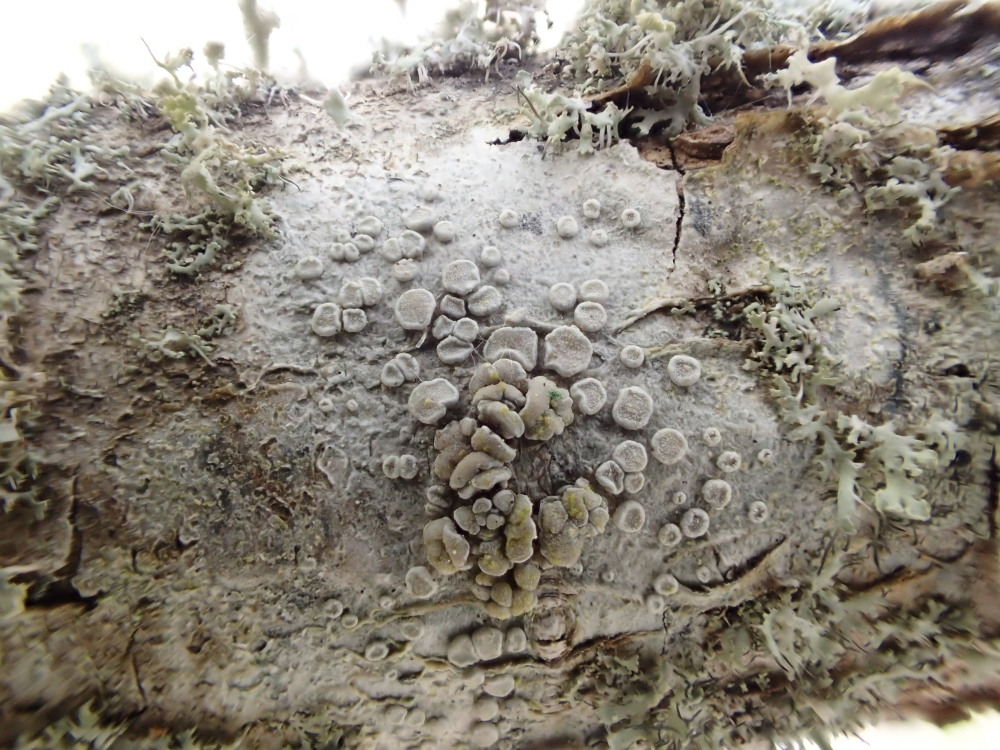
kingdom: Fungi
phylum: Ascomycota
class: Lecanoromycetes
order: Lecanorales
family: Lecanoraceae
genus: Glaucomaria
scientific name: Glaucomaria carpinea
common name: hviddugget kantskivelav
